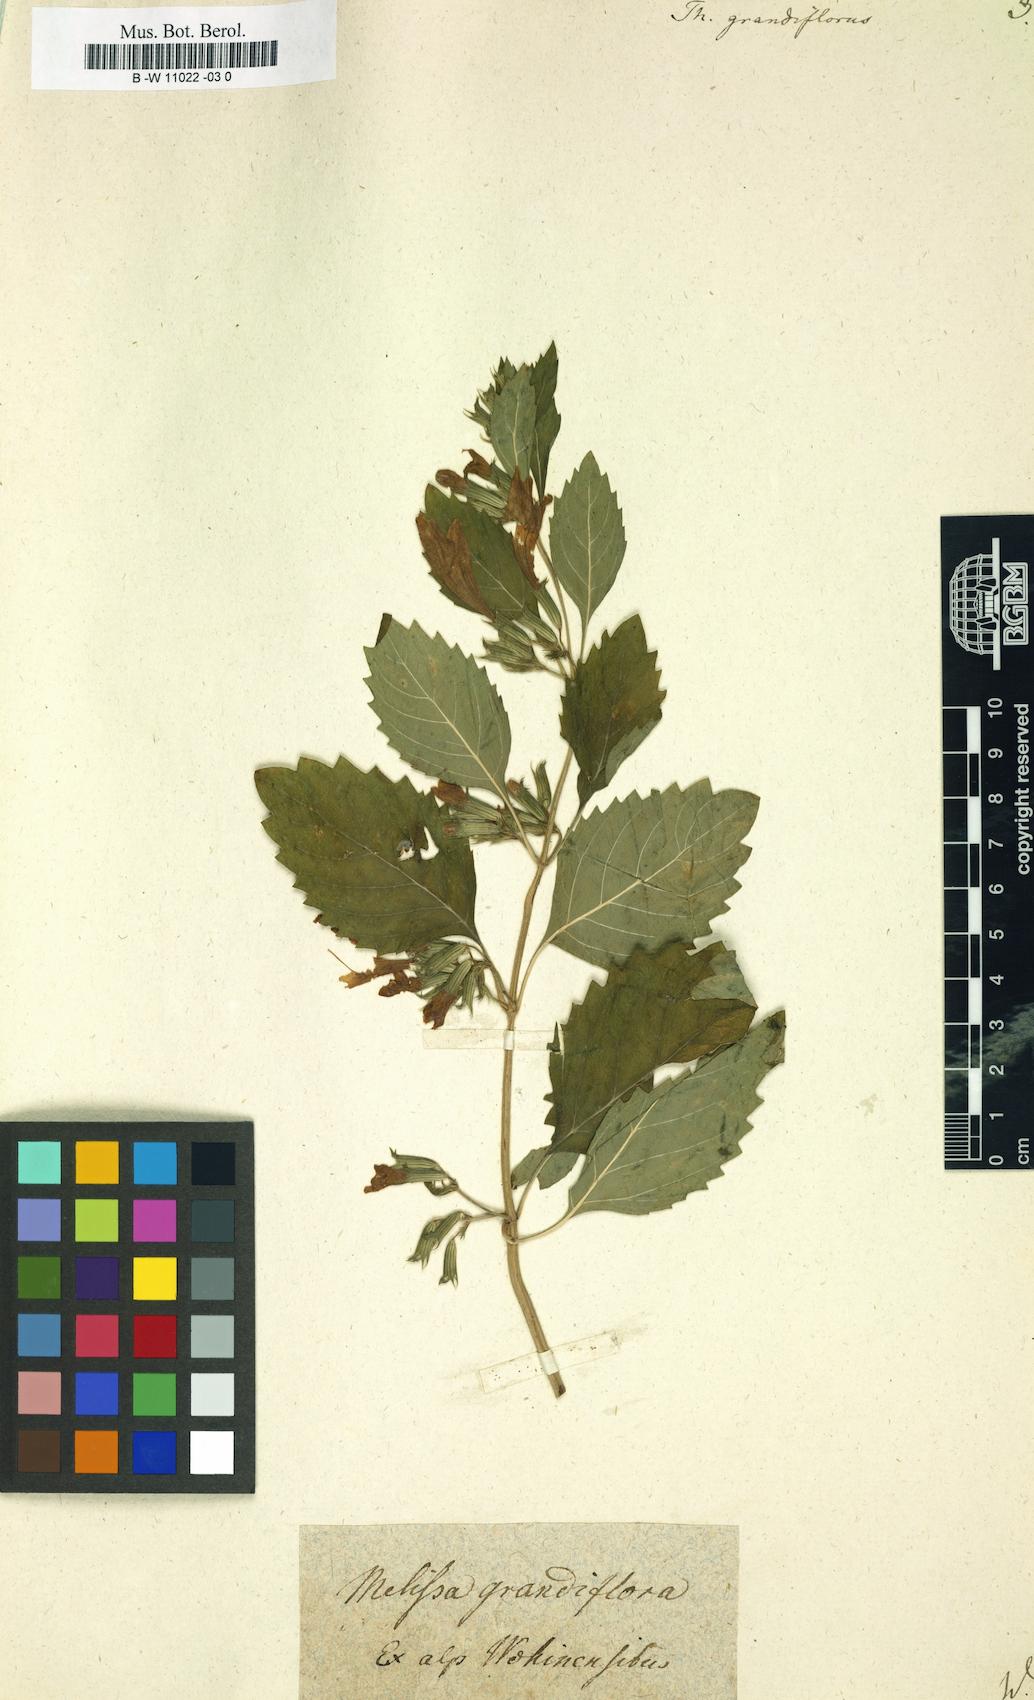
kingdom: Plantae
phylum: Tracheophyta
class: Magnoliopsida
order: Lamiales
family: Lamiaceae
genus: Thymus
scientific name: Thymus grandiflorus
